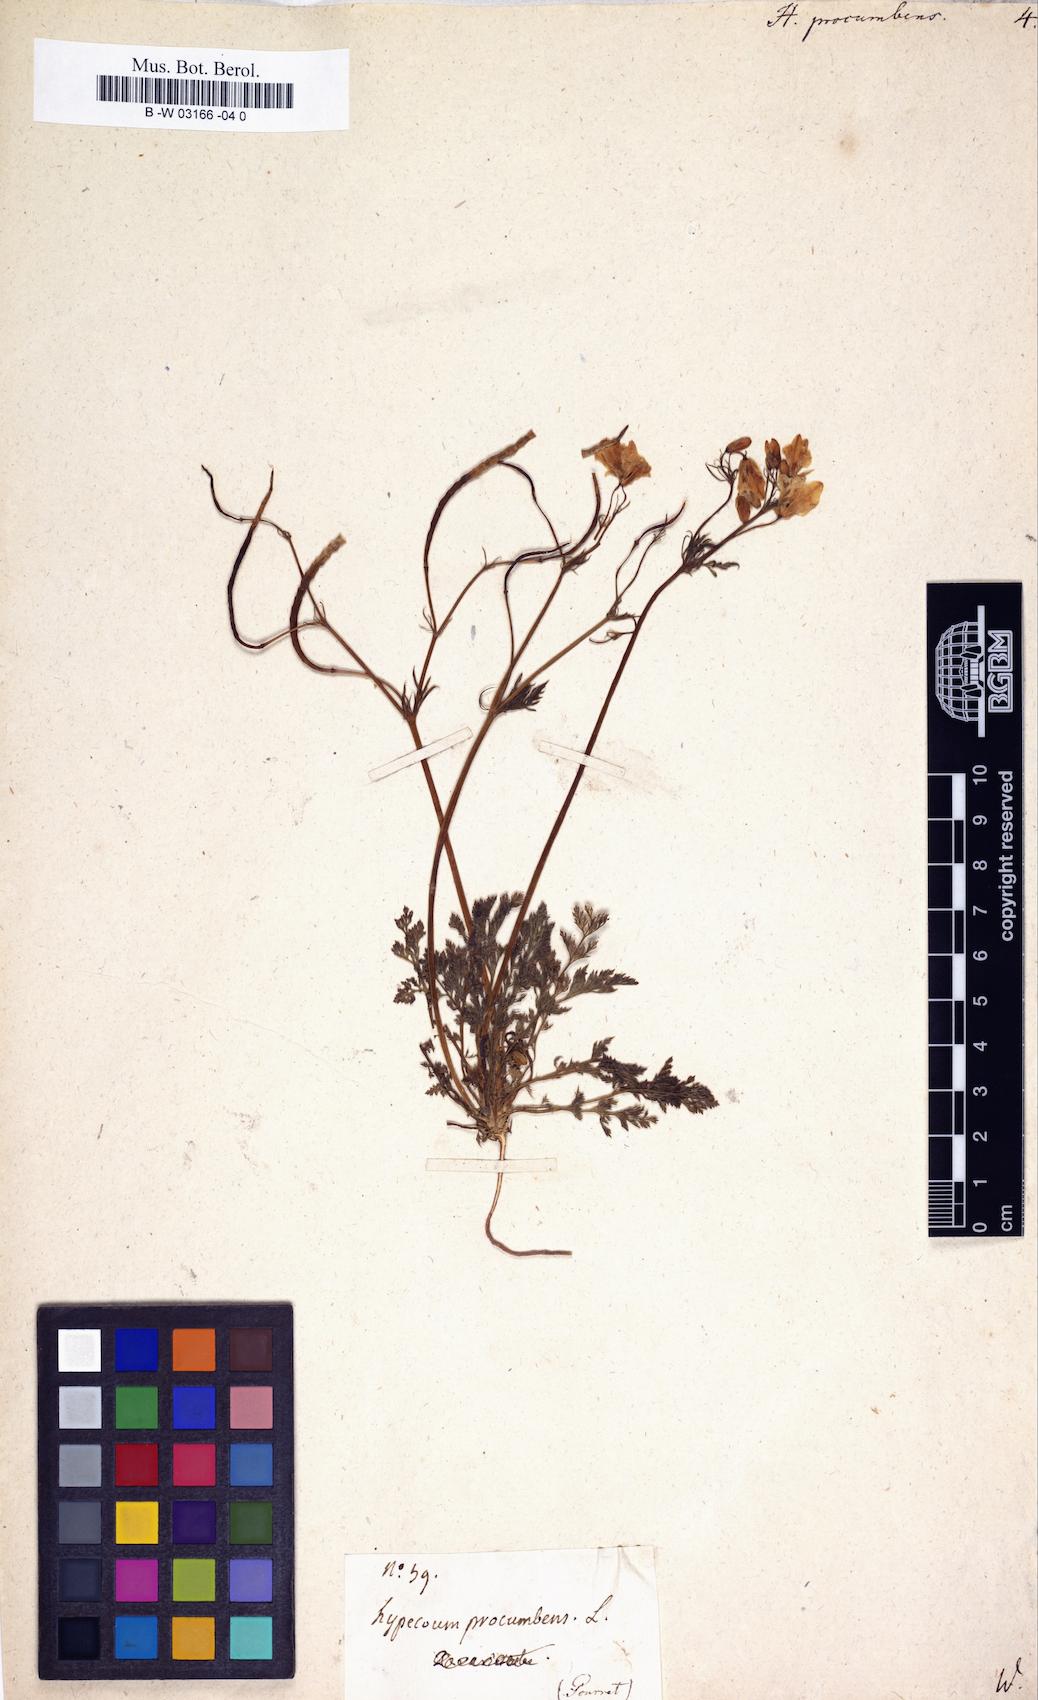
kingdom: Plantae
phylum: Tracheophyta
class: Magnoliopsida
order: Ranunculales
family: Papaveraceae
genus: Hypecoum
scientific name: Hypecoum procumbens
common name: Procumbent hypecoum
